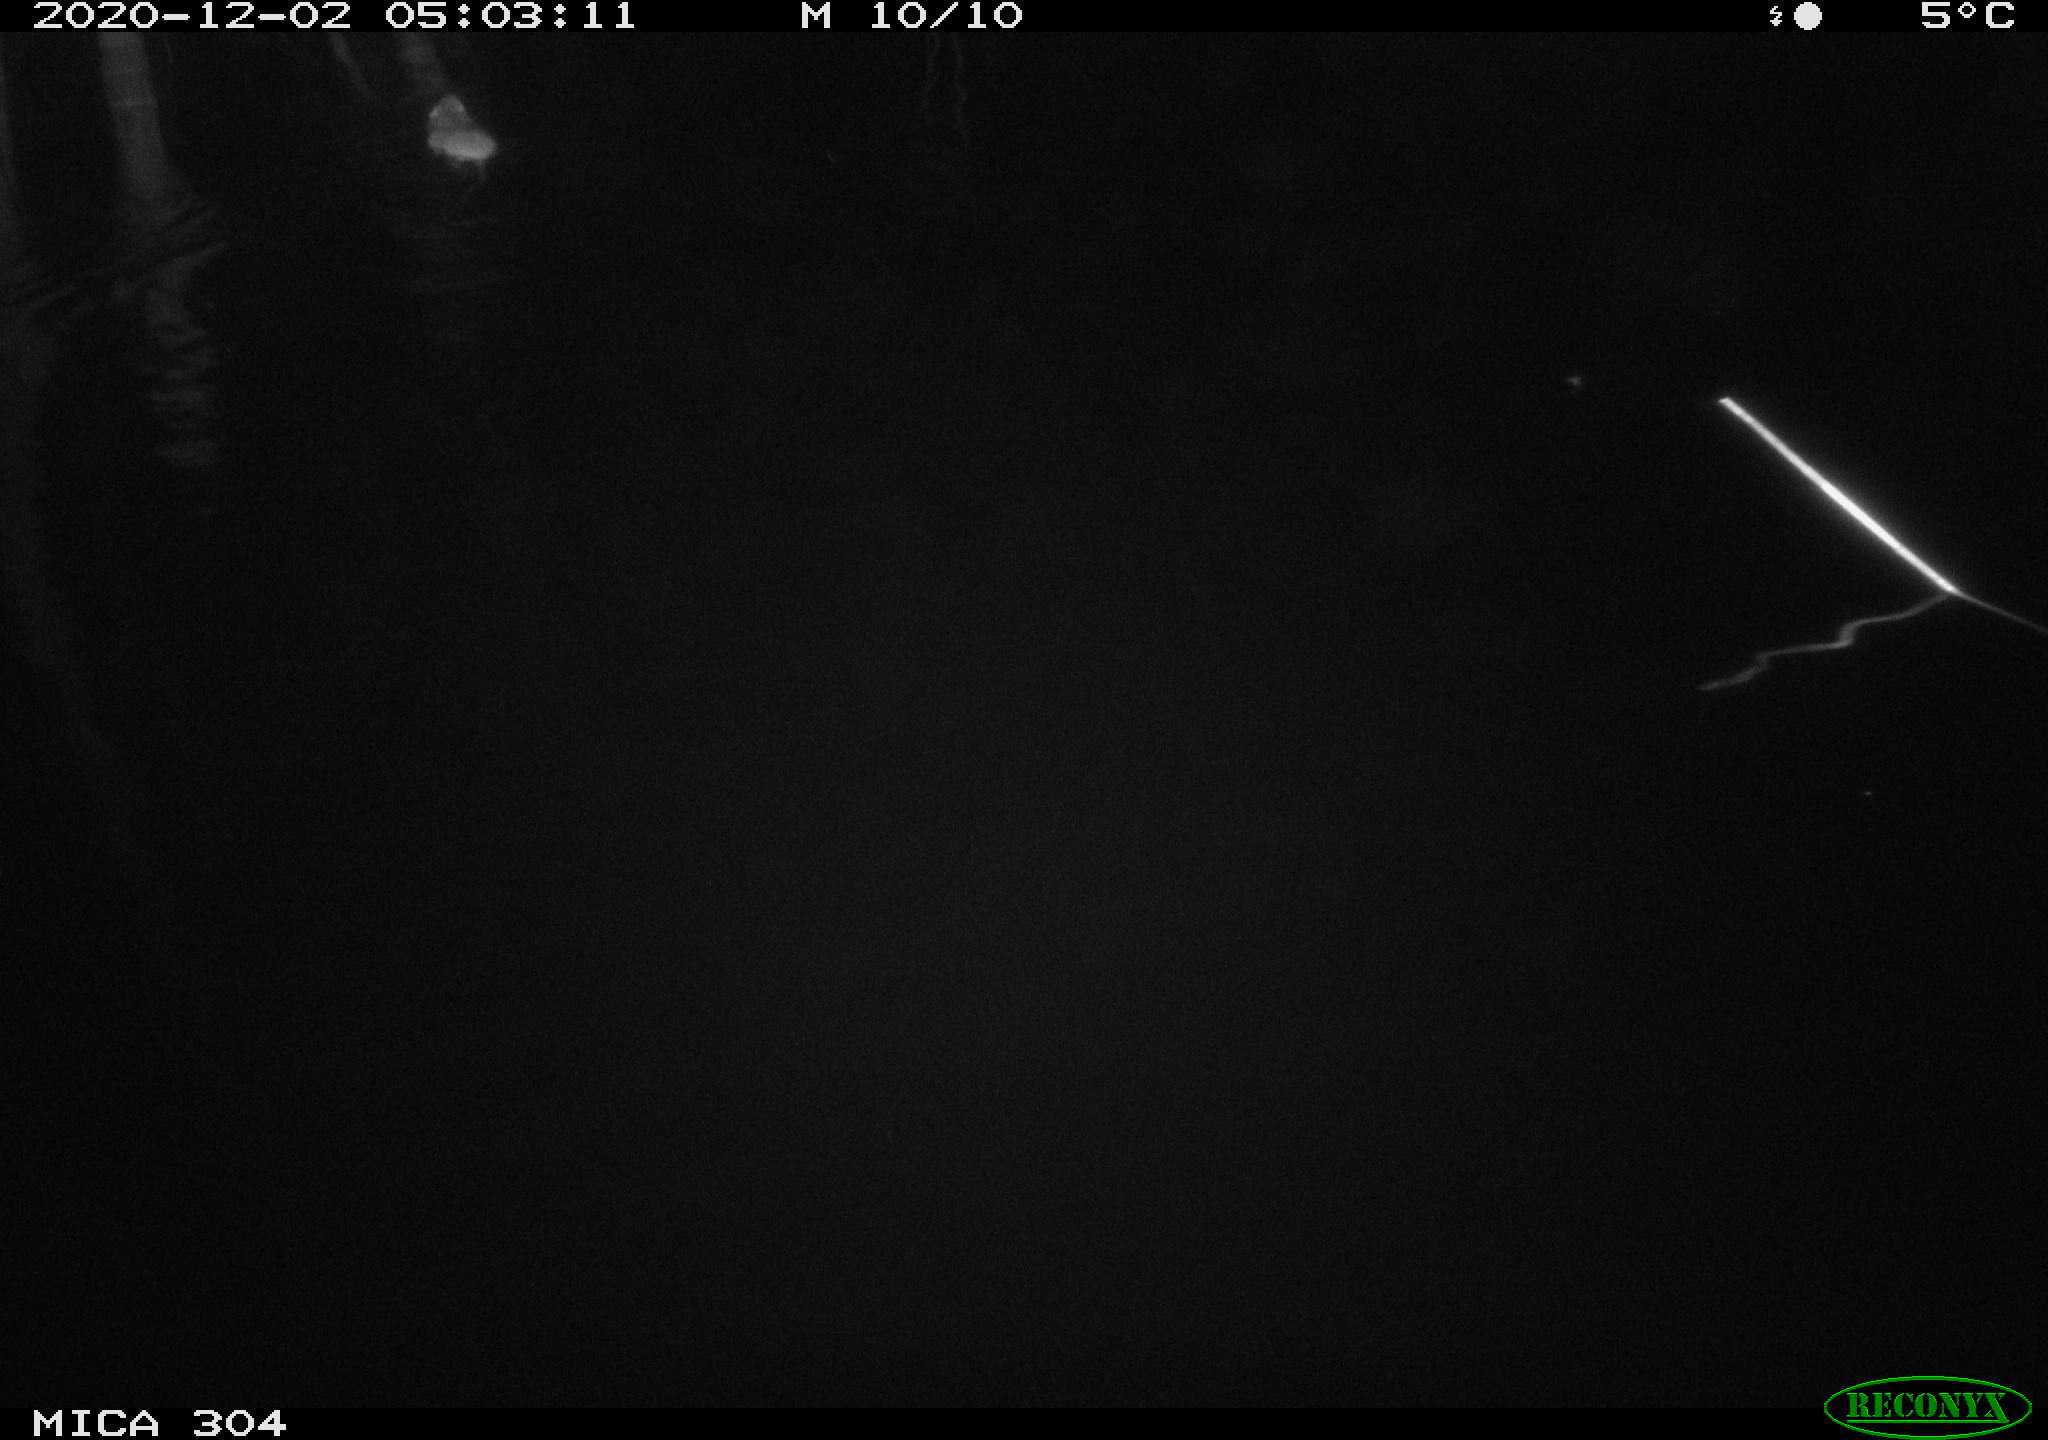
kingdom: Animalia
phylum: Chordata
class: Mammalia
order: Rodentia
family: Muridae
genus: Rattus
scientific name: Rattus norvegicus
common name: Brown rat
